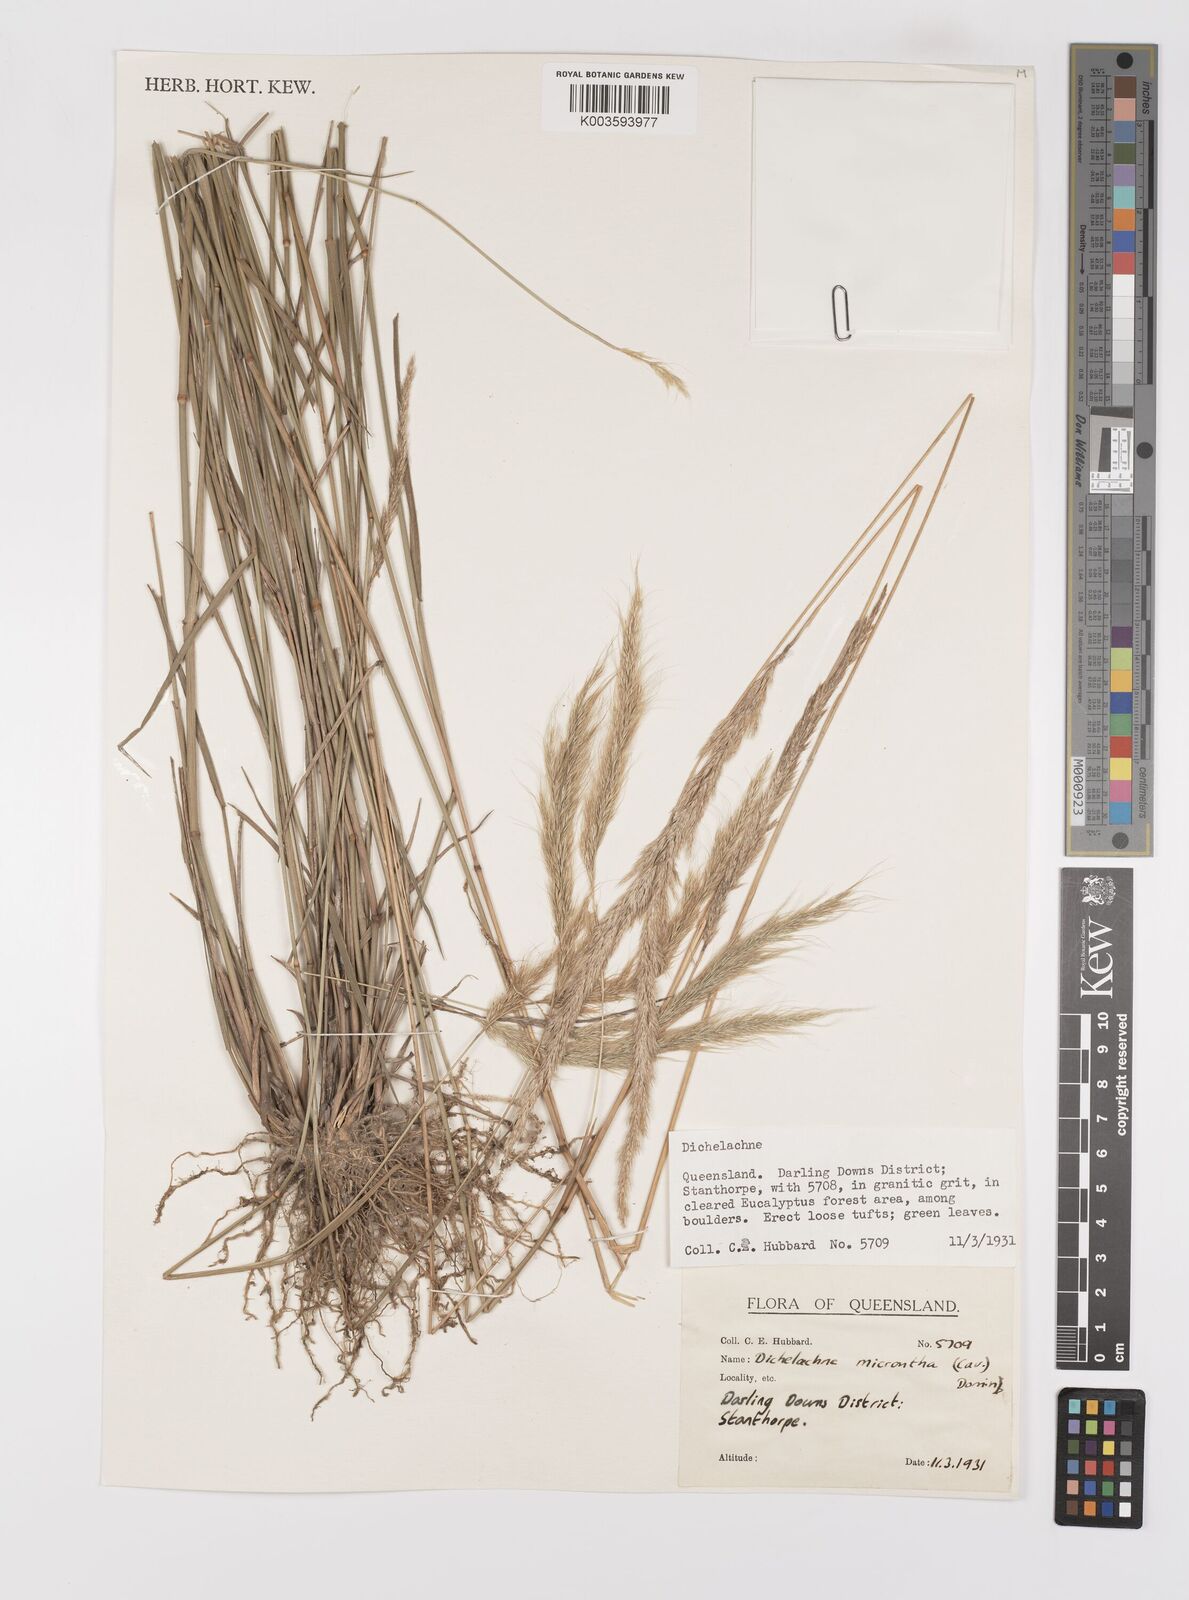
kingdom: Plantae
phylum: Tracheophyta
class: Liliopsida
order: Poales
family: Poaceae
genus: Dichelachne
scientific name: Dichelachne micrantha
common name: Plumegrass
